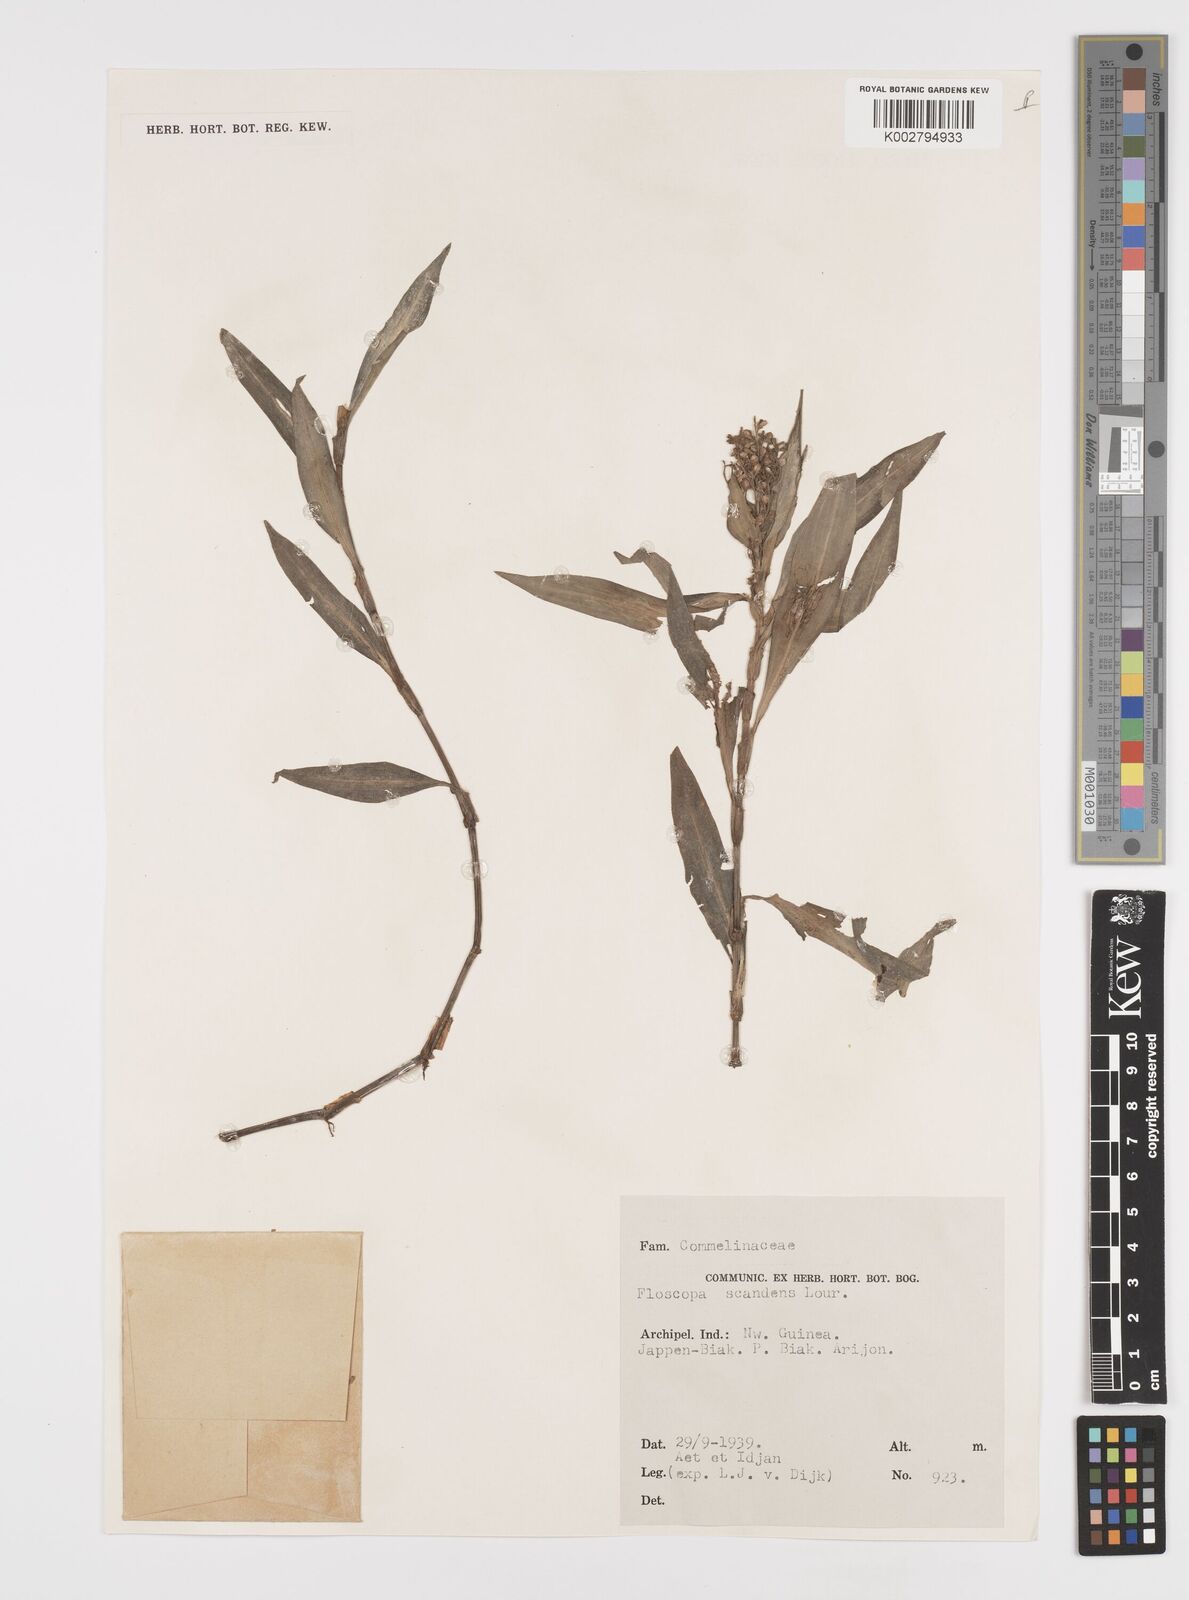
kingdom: Plantae
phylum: Tracheophyta
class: Liliopsida
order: Commelinales
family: Commelinaceae
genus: Floscopa
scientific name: Floscopa scandens
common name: Climbing flower cup
